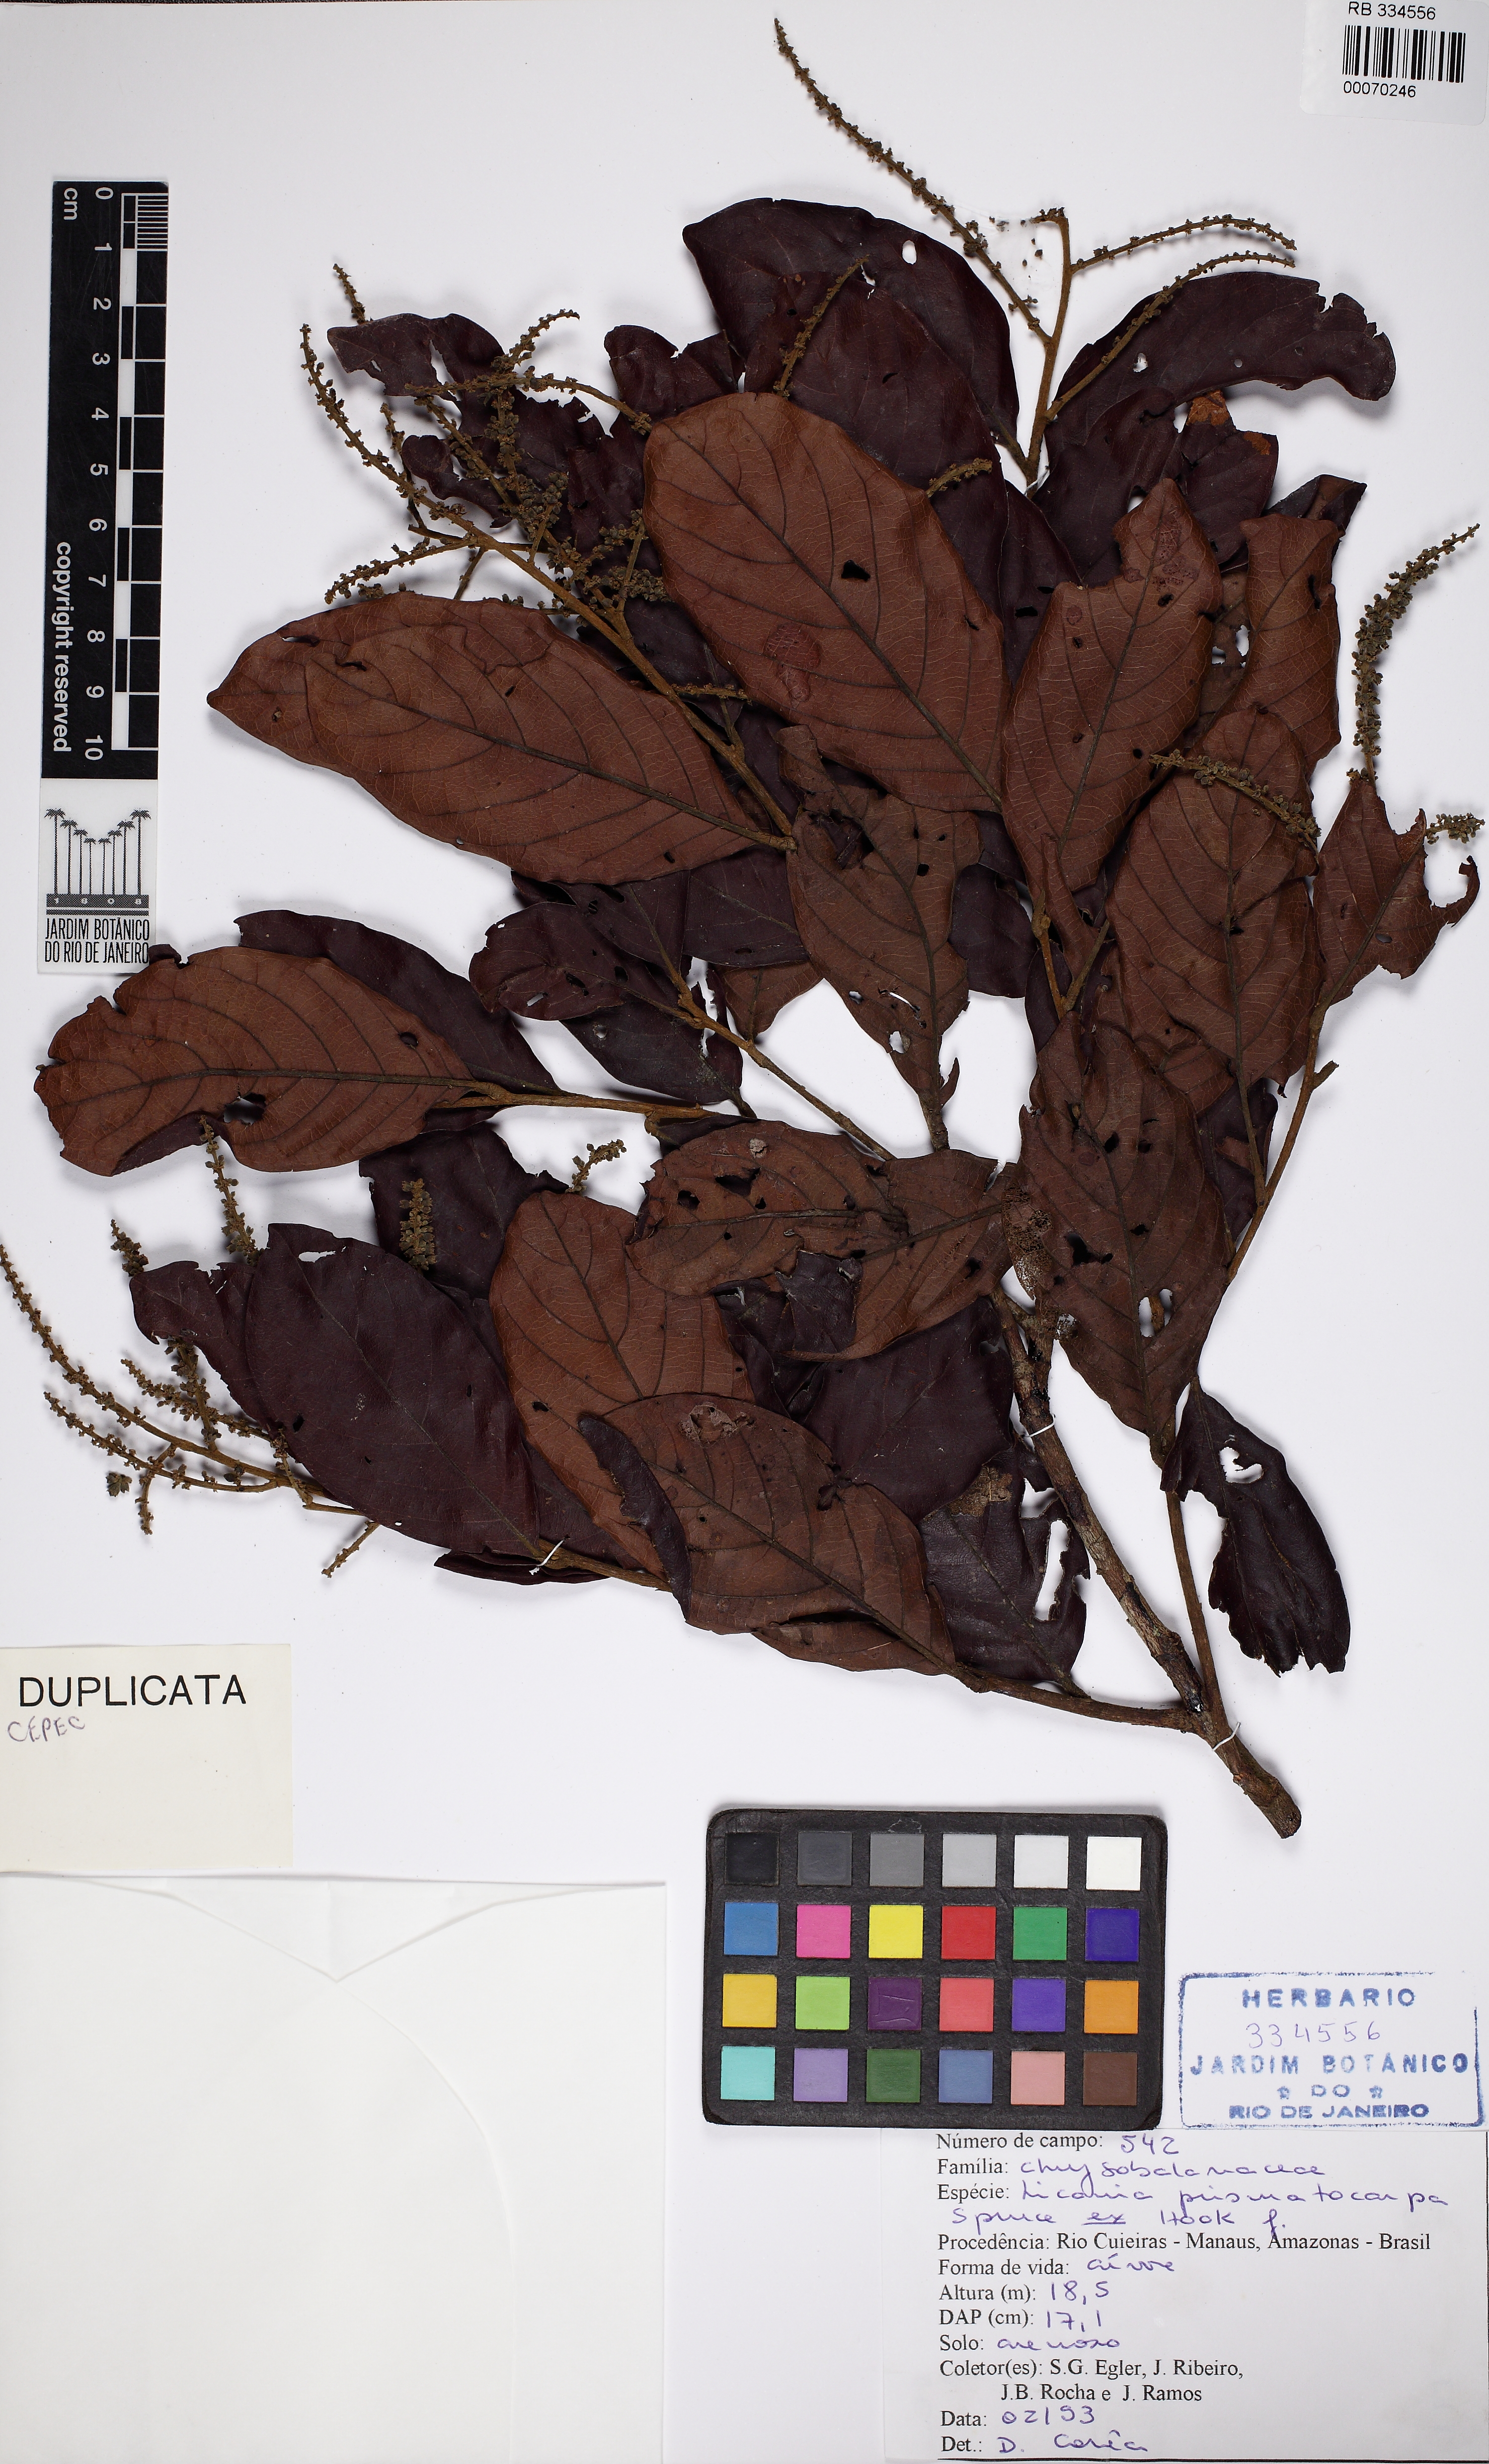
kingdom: Plantae
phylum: Tracheophyta
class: Magnoliopsida
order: Malpighiales
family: Chrysobalanaceae
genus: Hymenopus
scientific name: Hymenopus prismatocarpus
